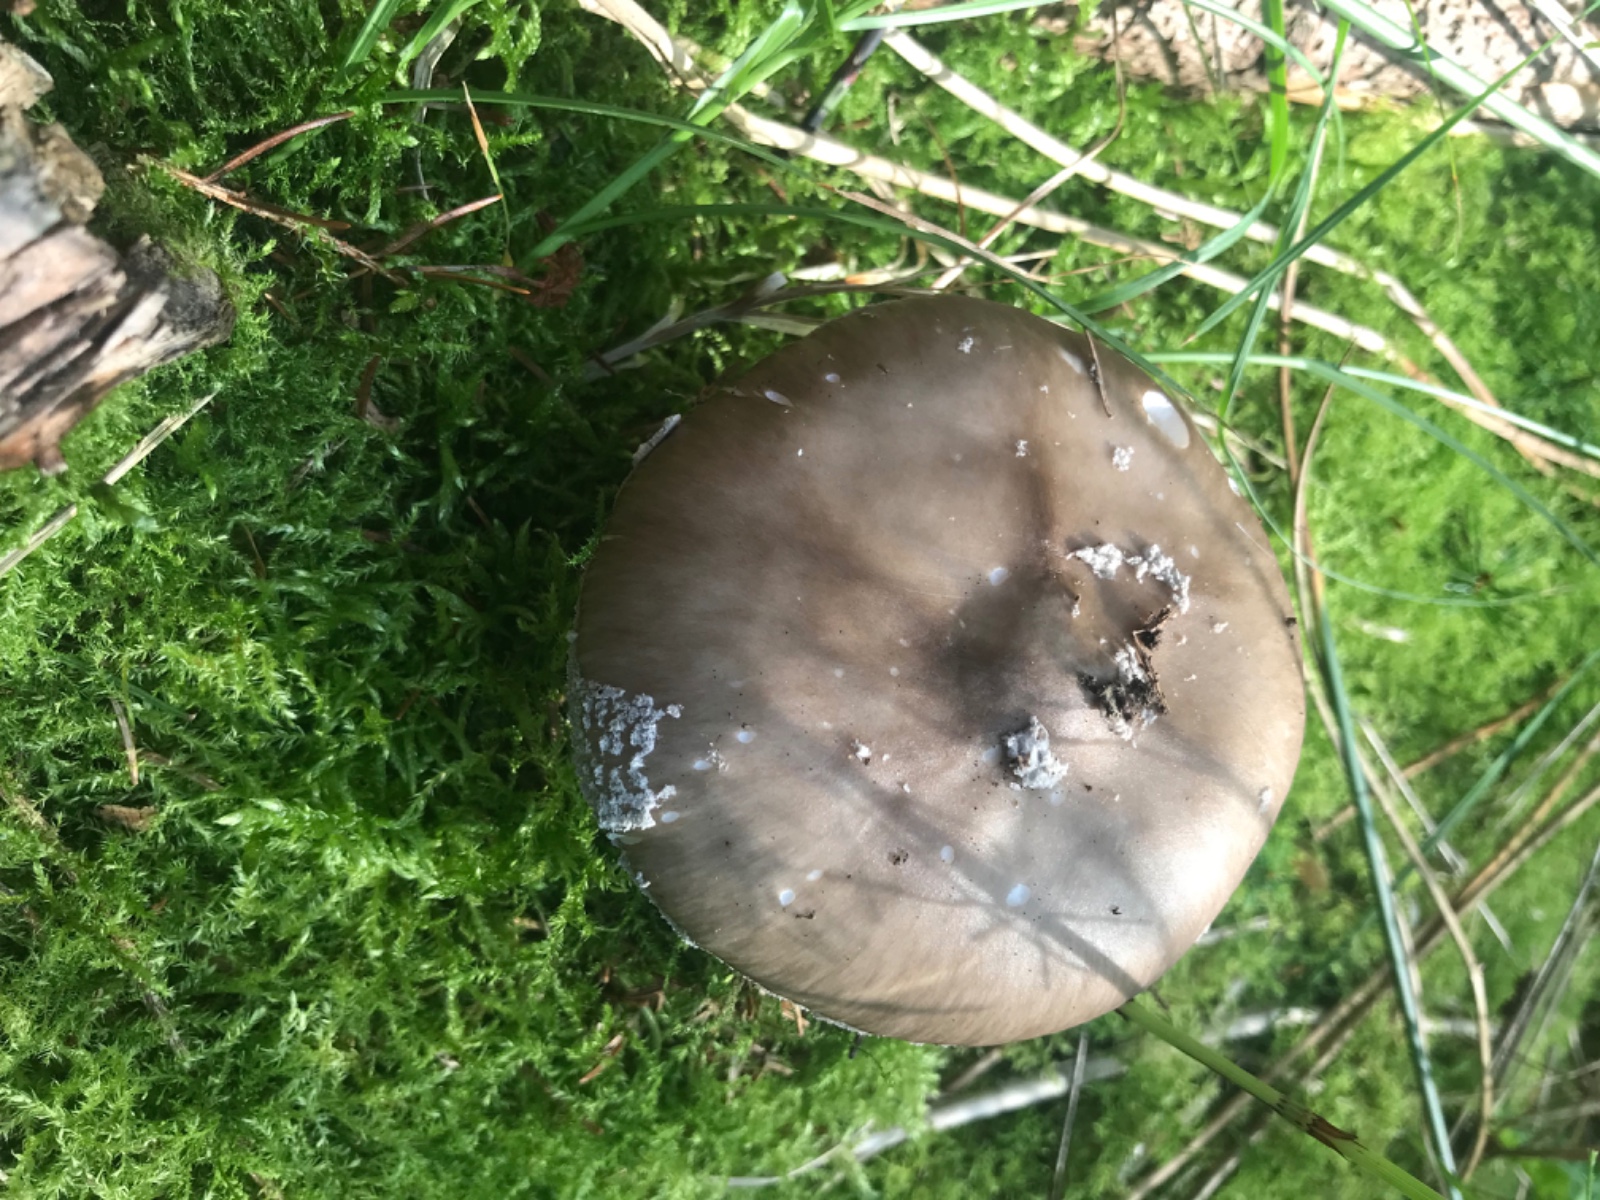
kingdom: Fungi
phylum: Basidiomycota
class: Agaricomycetes
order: Agaricales
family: Amanitaceae
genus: Amanita
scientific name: Amanita porphyria
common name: porfyr-fluesvamp
